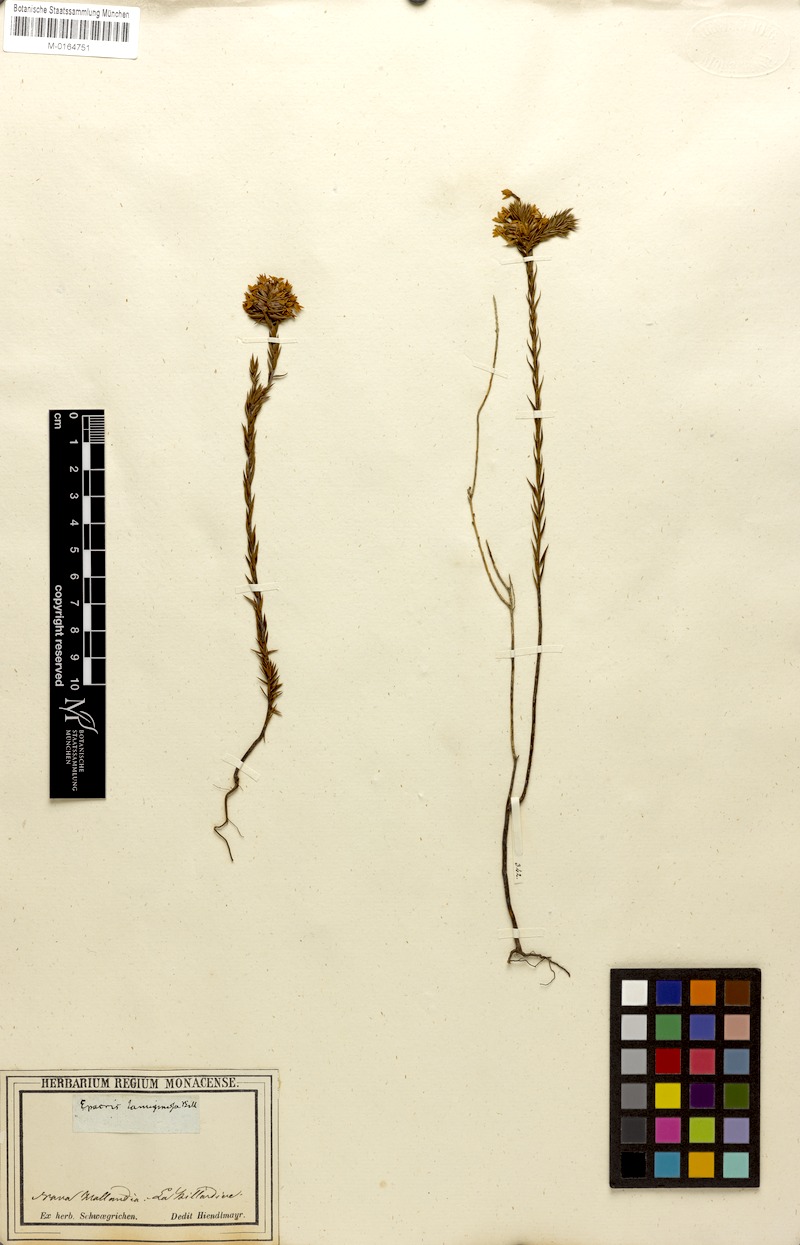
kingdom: Plantae
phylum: Tracheophyta
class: Magnoliopsida
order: Ericales
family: Ericaceae
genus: Epacris
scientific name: Epacris lanuginosa
